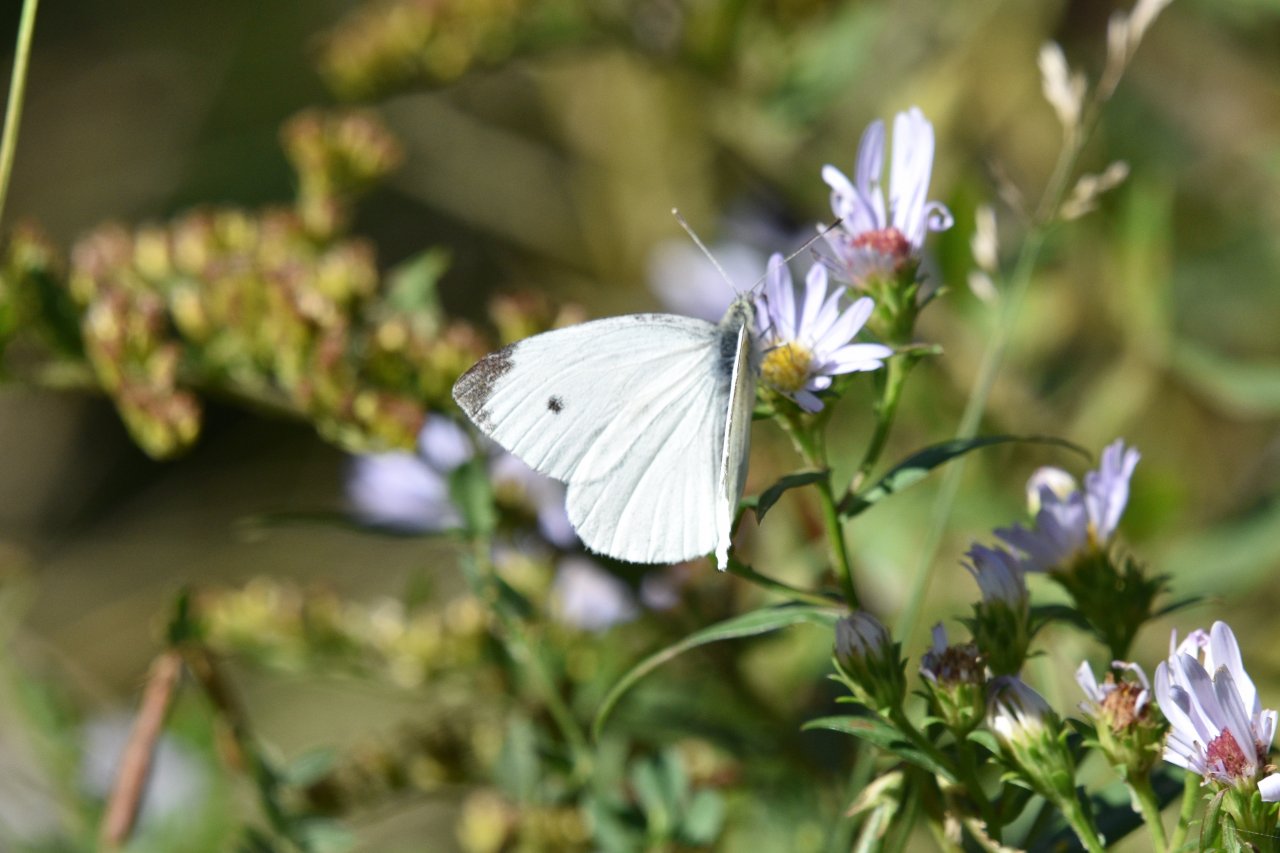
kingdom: Animalia
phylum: Arthropoda
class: Insecta
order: Lepidoptera
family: Pieridae
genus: Pieris
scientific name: Pieris rapae
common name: Cabbage White
